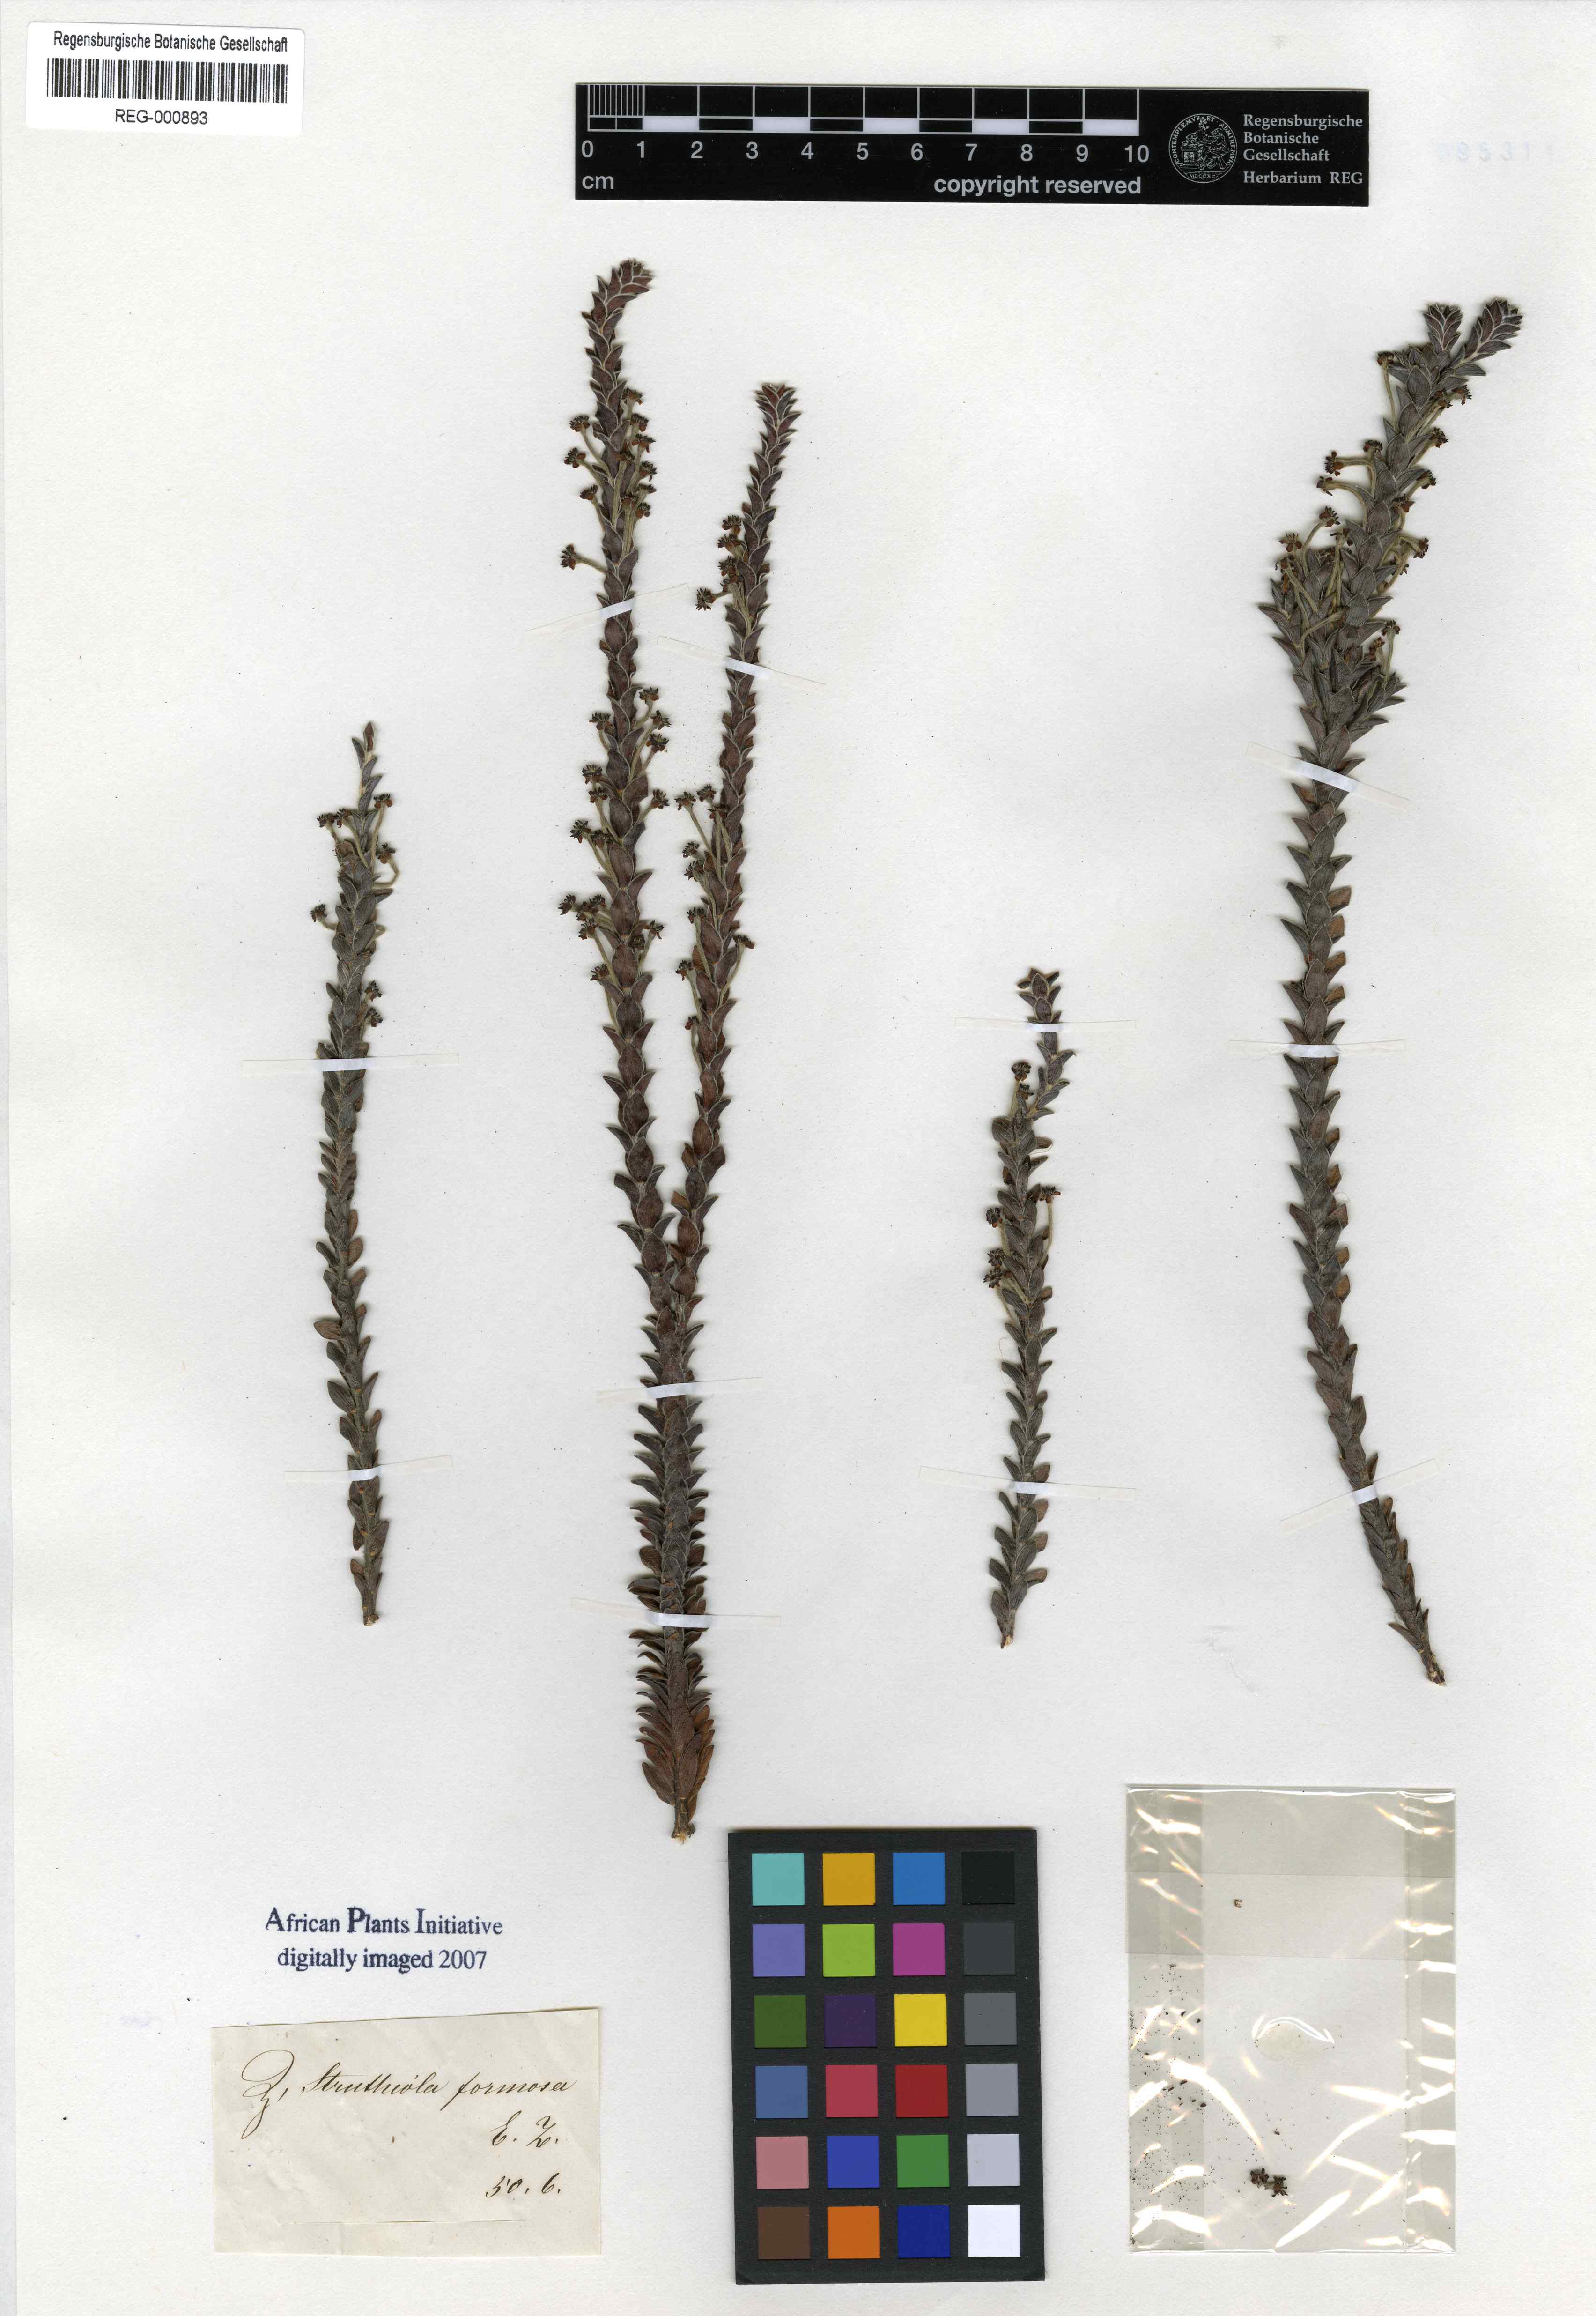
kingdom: Plantae
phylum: Tracheophyta
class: Magnoliopsida
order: Malvales
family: Thymelaeaceae
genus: Struthiola
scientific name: Struthiola argentea
